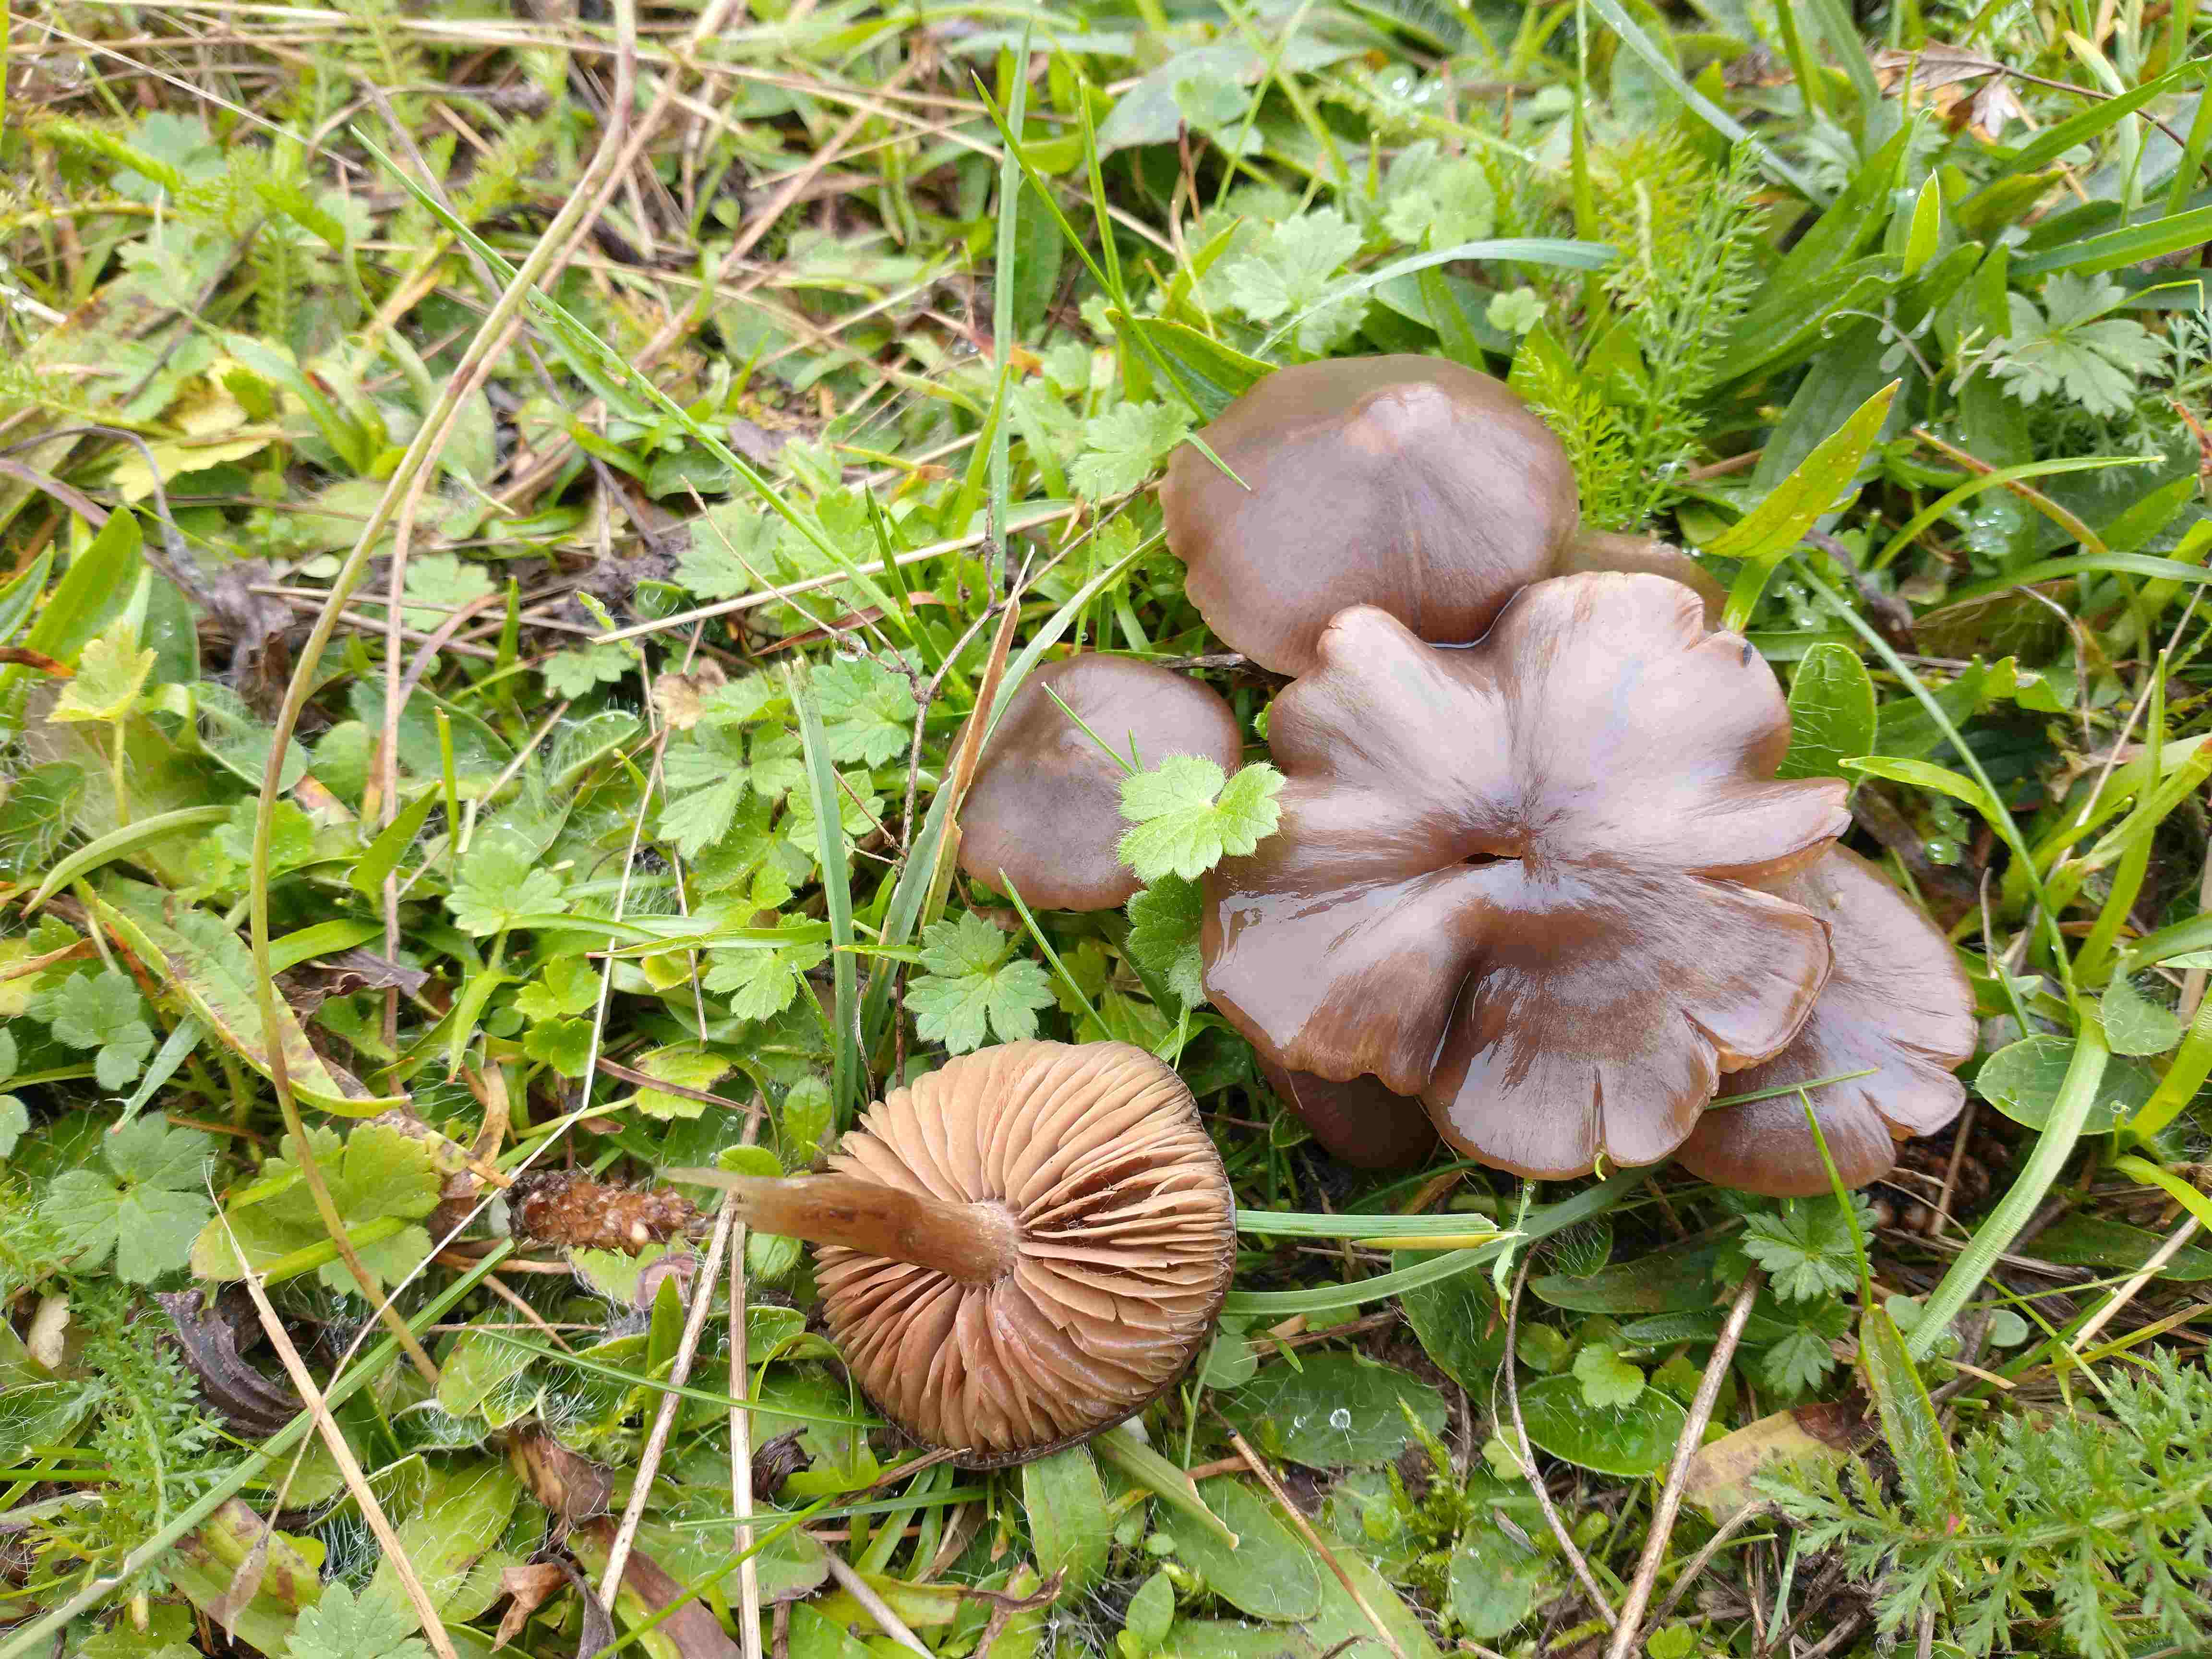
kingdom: Fungi
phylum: Basidiomycota
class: Agaricomycetes
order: Agaricales
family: Entolomataceae
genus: Entoloma
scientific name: Entoloma sericeum
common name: silkeglinsende rødblad
